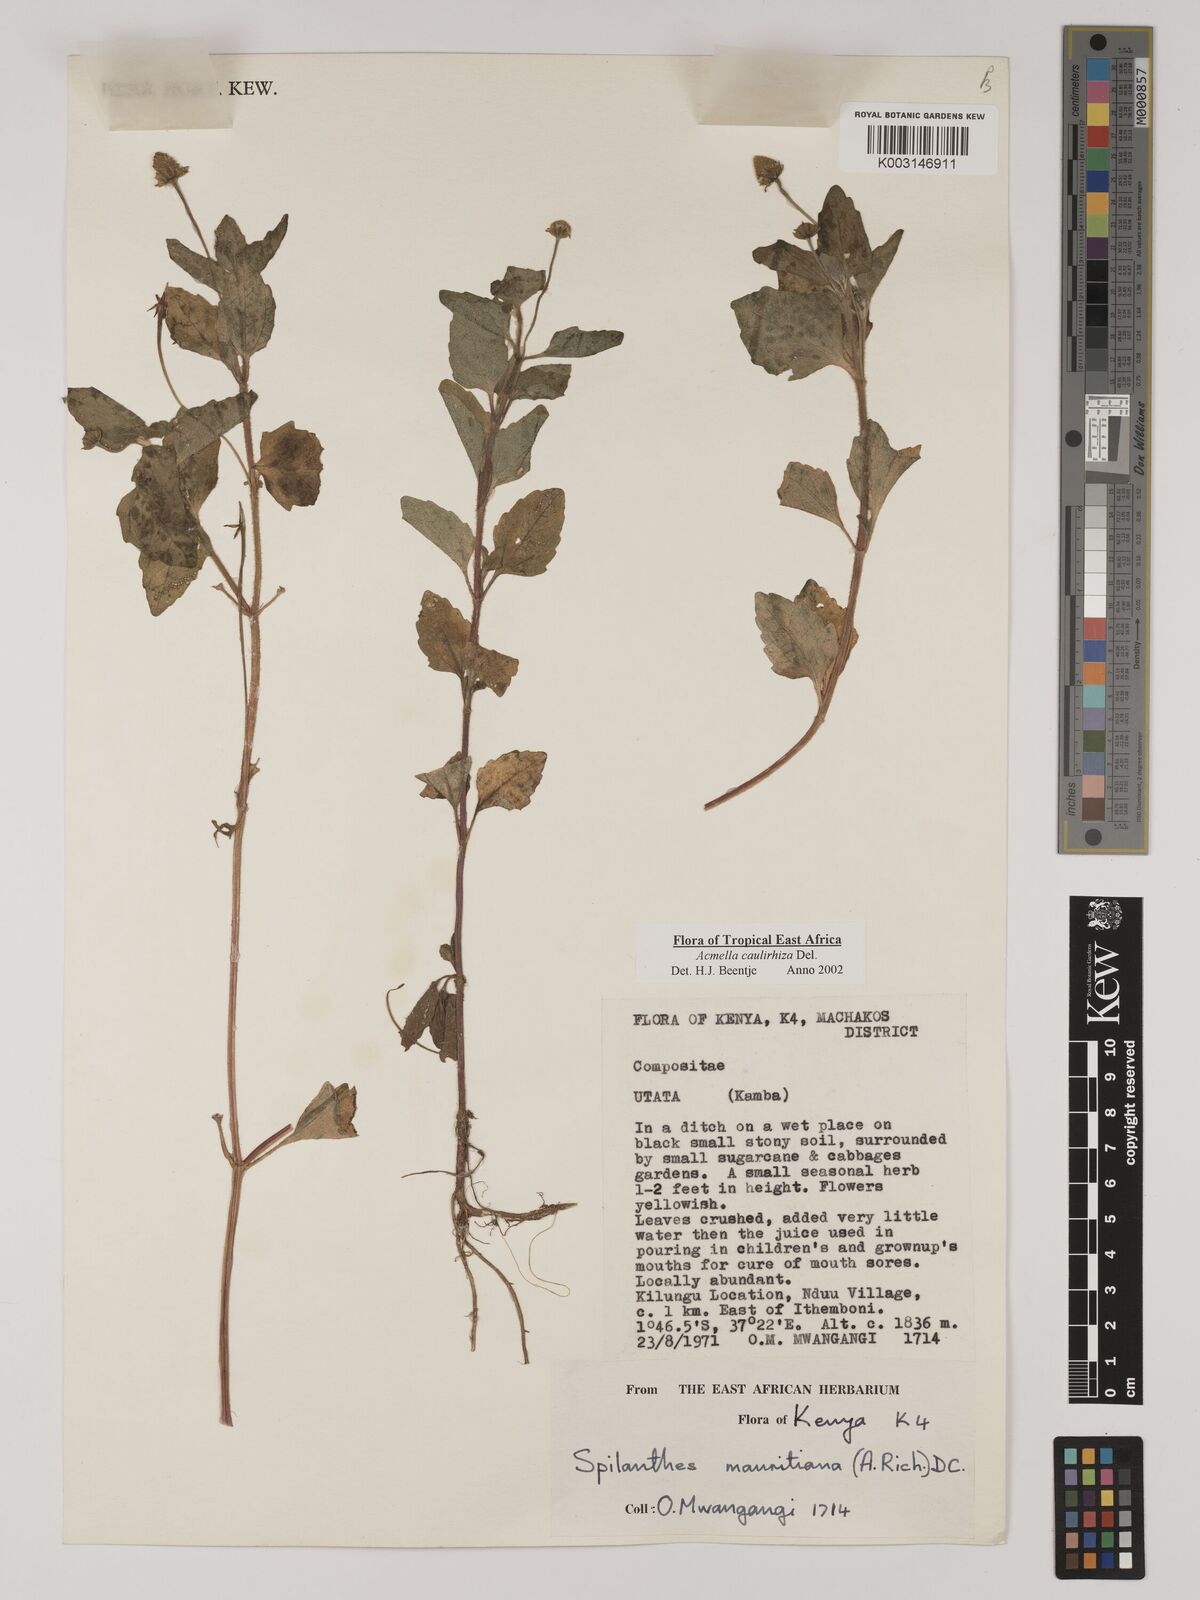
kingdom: Plantae
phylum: Tracheophyta
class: Magnoliopsida
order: Asterales
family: Asteraceae
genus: Acmella
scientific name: Acmella caulirhiza
